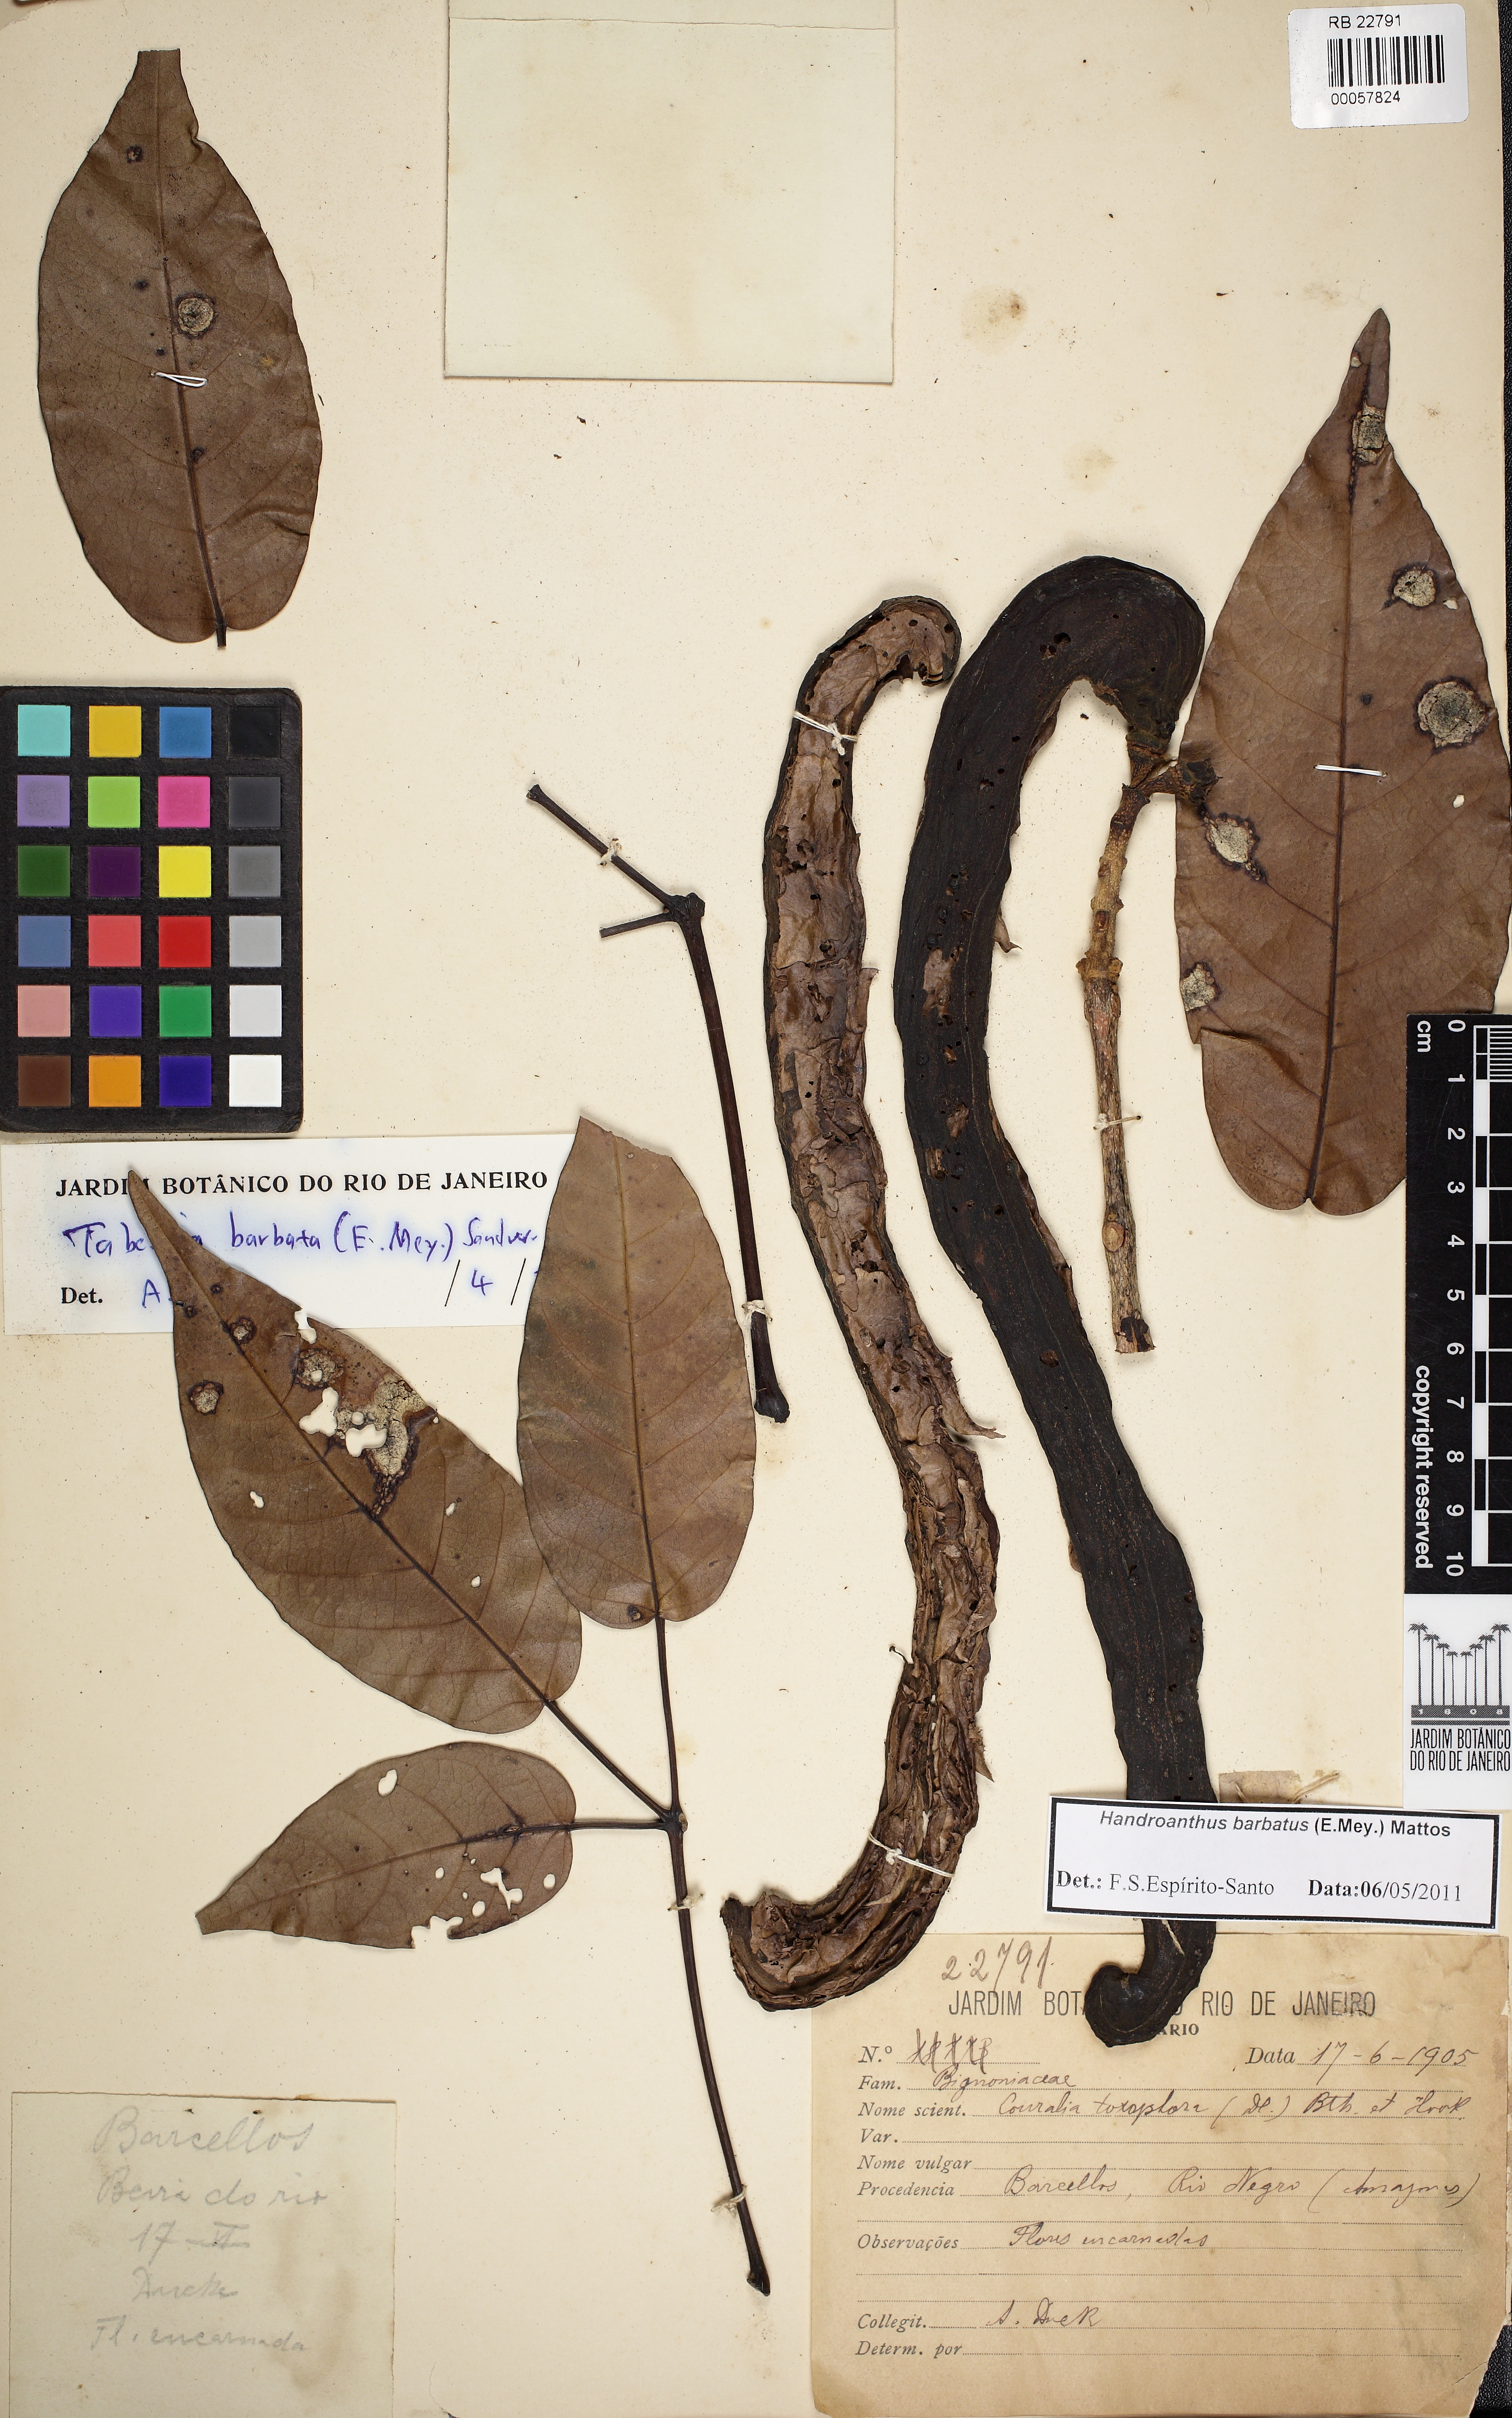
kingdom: Plantae
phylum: Tracheophyta
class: Magnoliopsida
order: Lamiales
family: Bignoniaceae
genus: Handroanthus
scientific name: Handroanthus barbatus
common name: Trumpet trees
